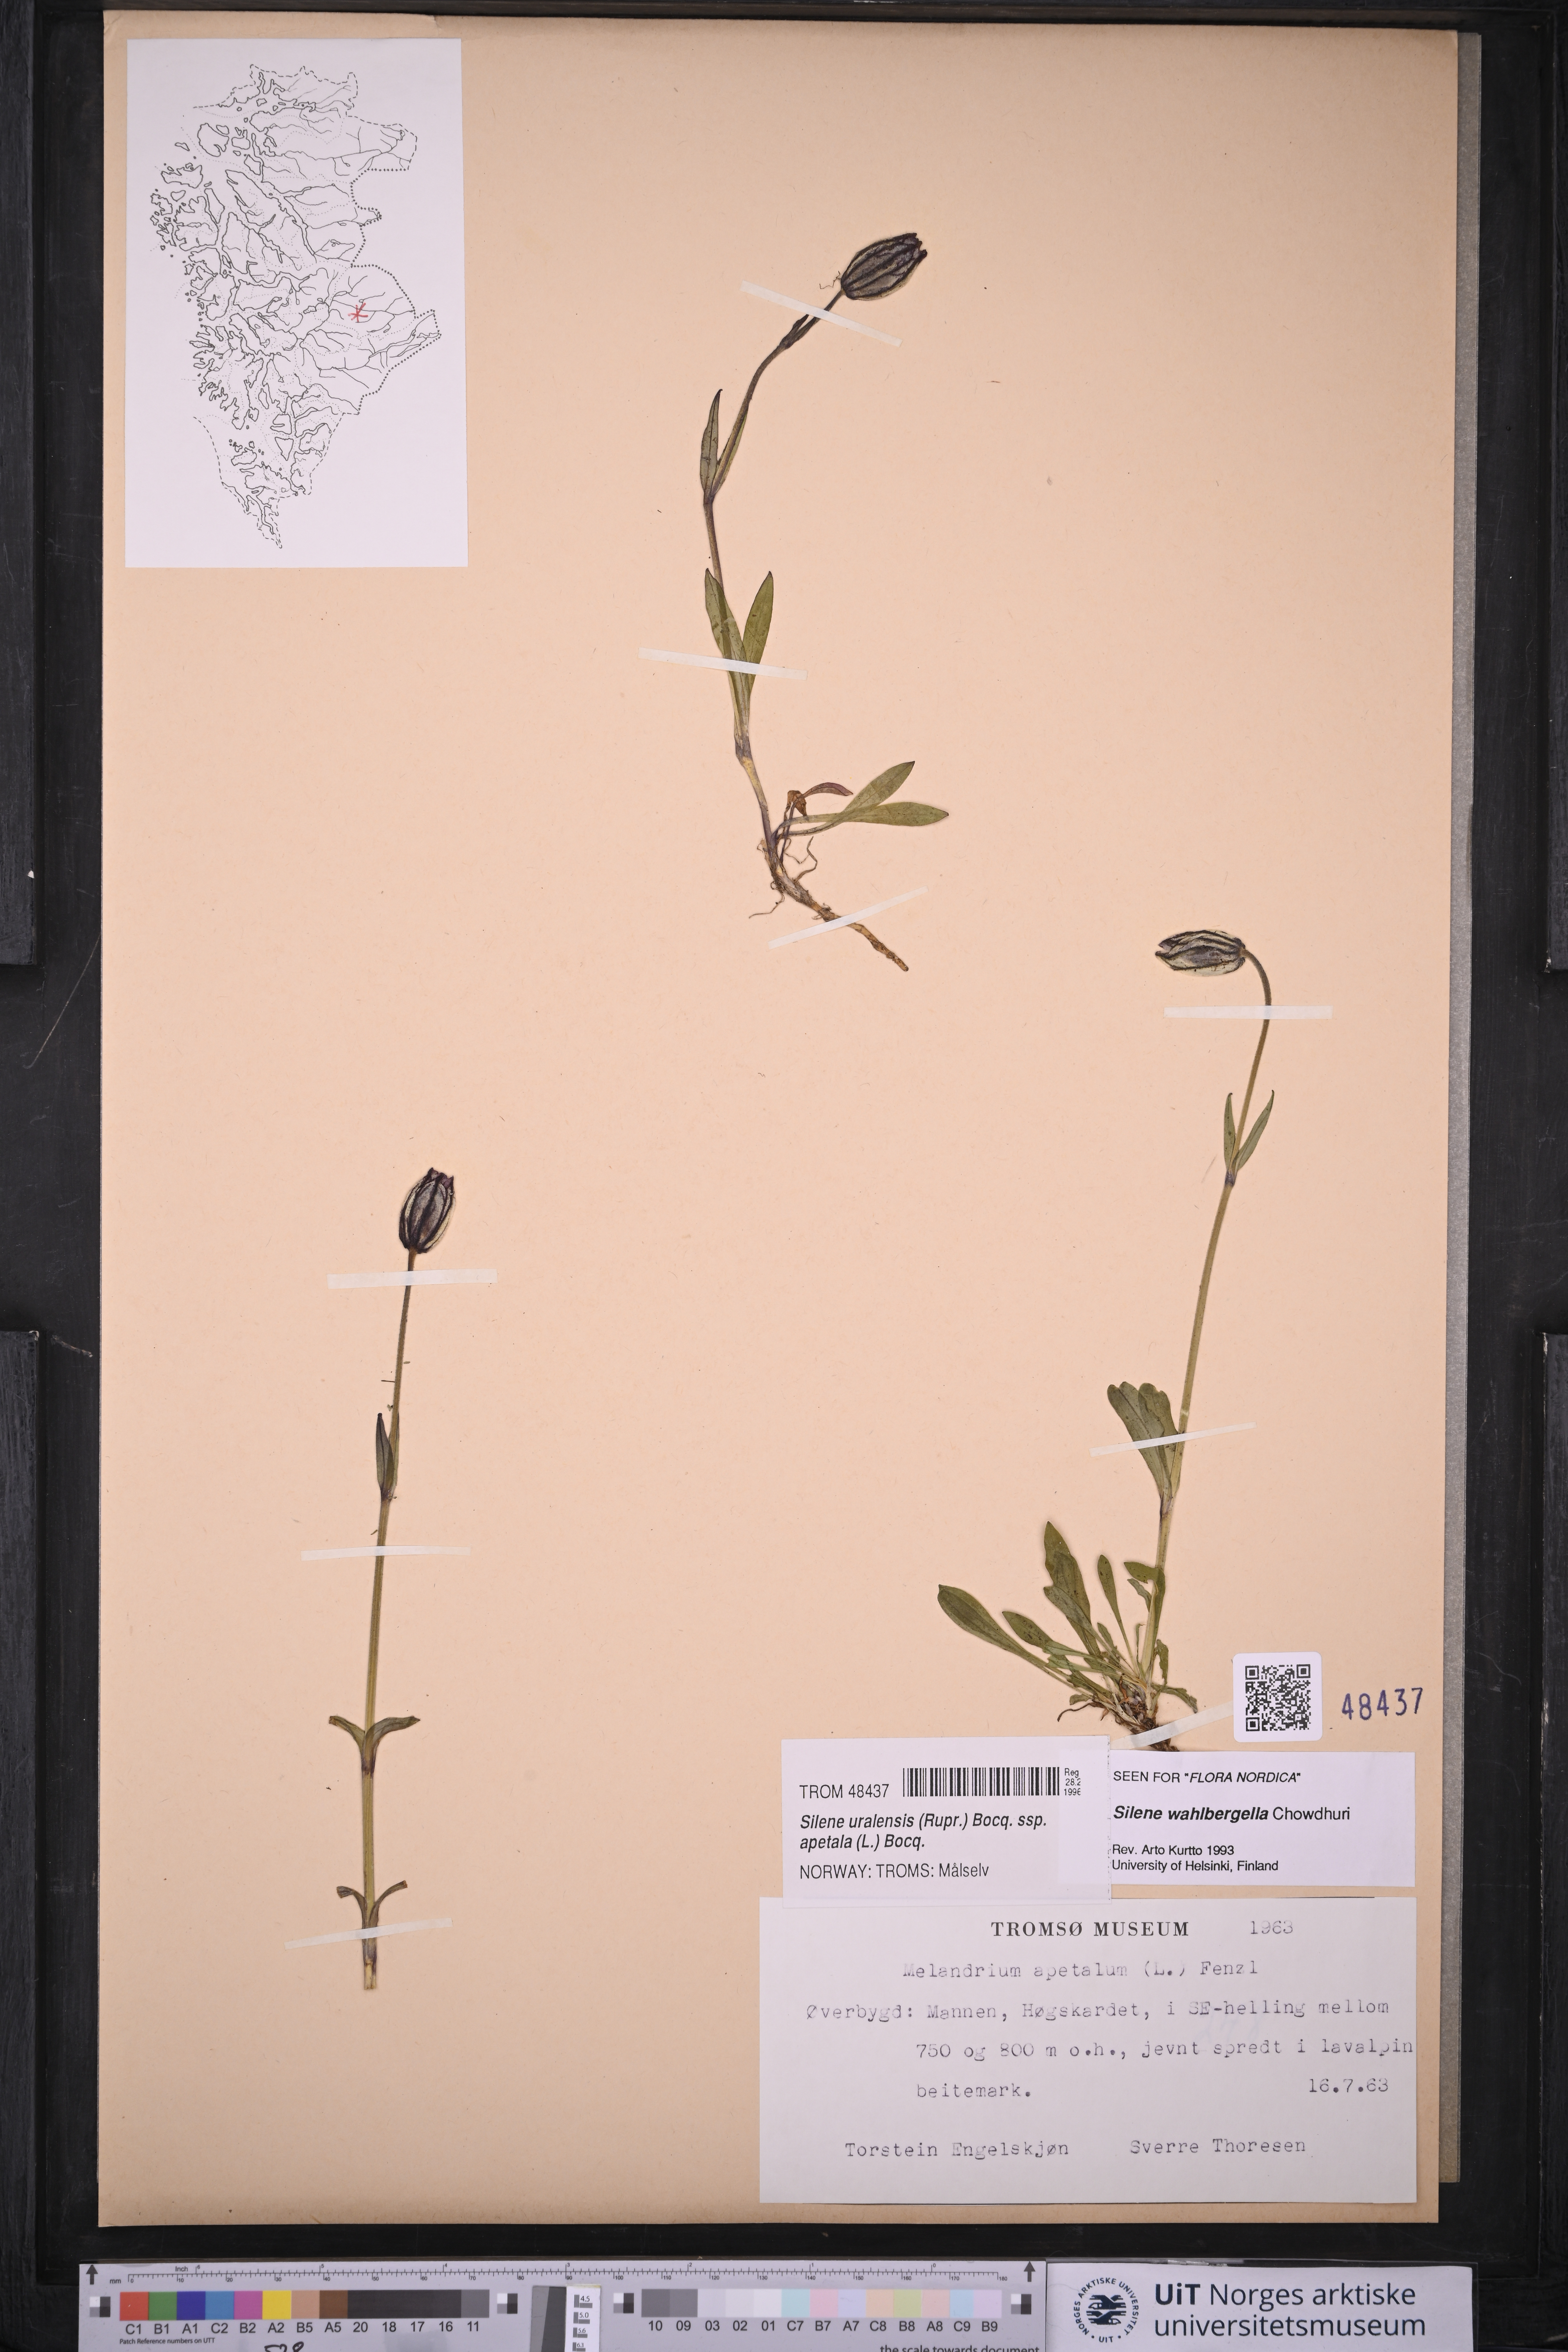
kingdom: Plantae
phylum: Tracheophyta
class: Magnoliopsida
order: Caryophyllales
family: Caryophyllaceae
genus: Silene
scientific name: Silene wahlbergella
